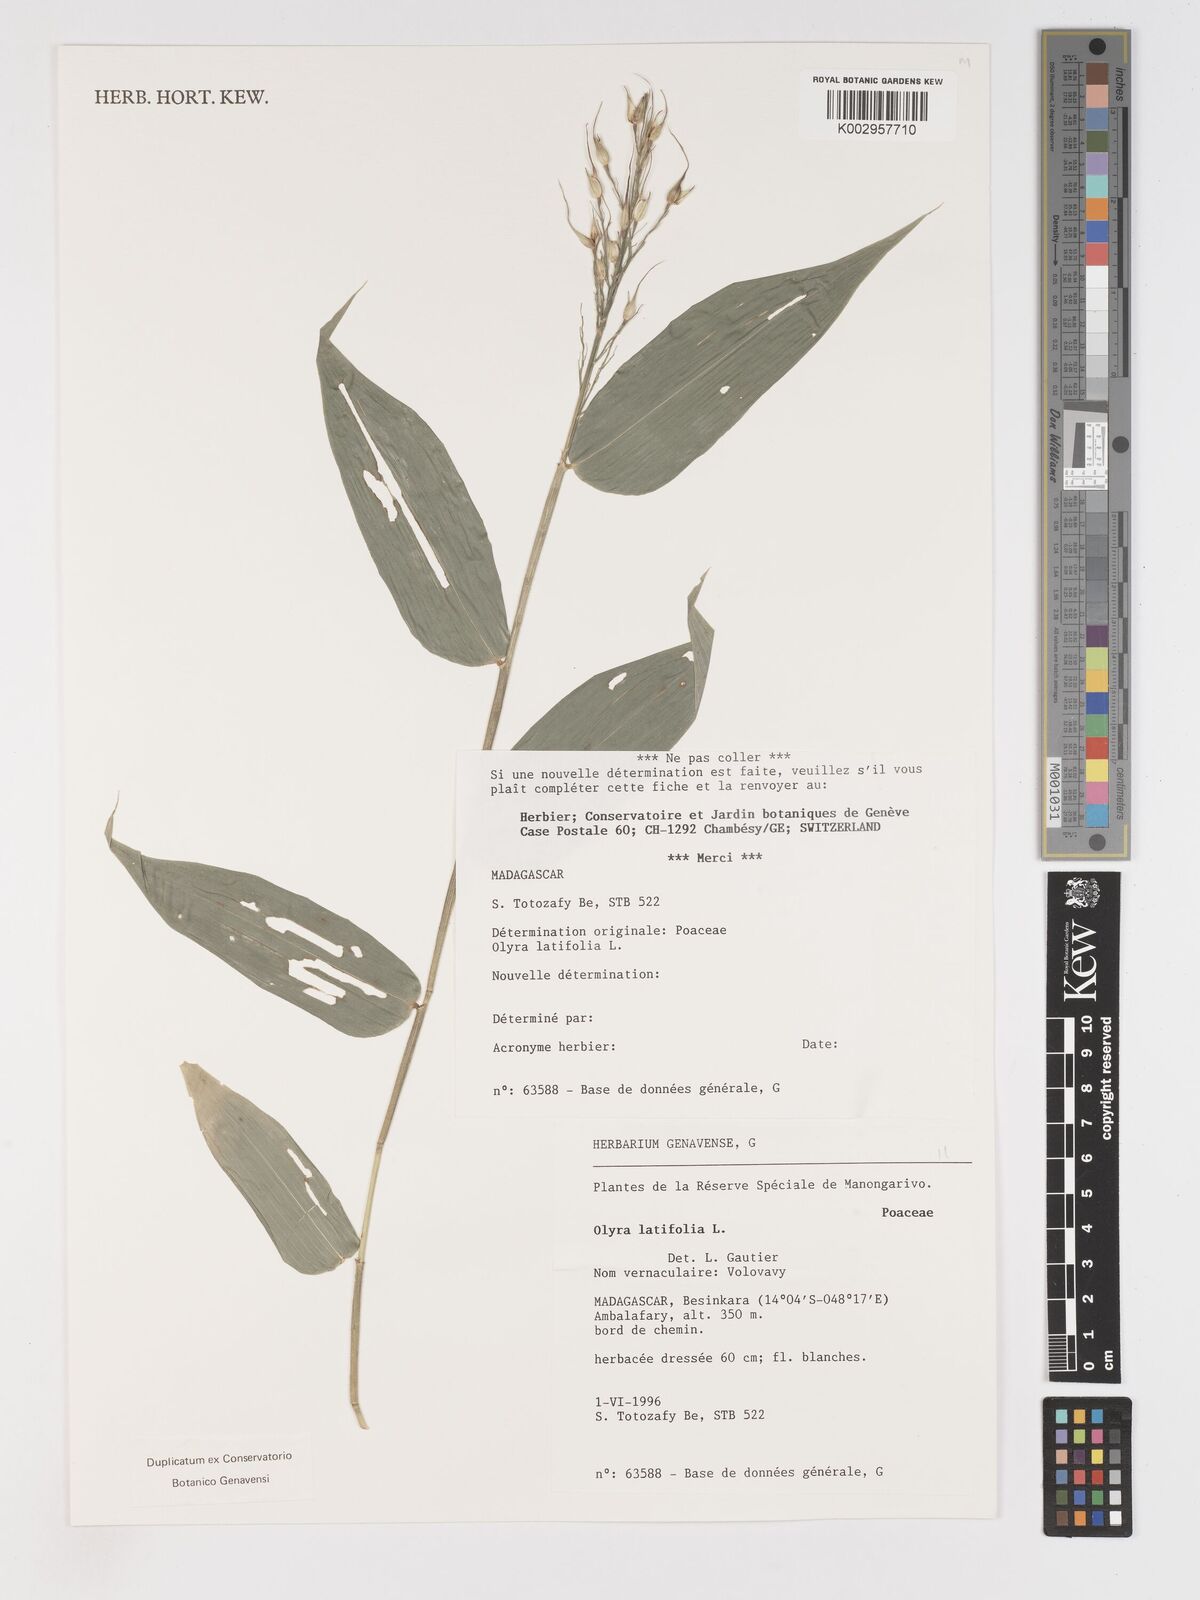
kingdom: Plantae
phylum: Tracheophyta
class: Liliopsida
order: Poales
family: Poaceae
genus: Olyra
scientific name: Olyra latifolia
